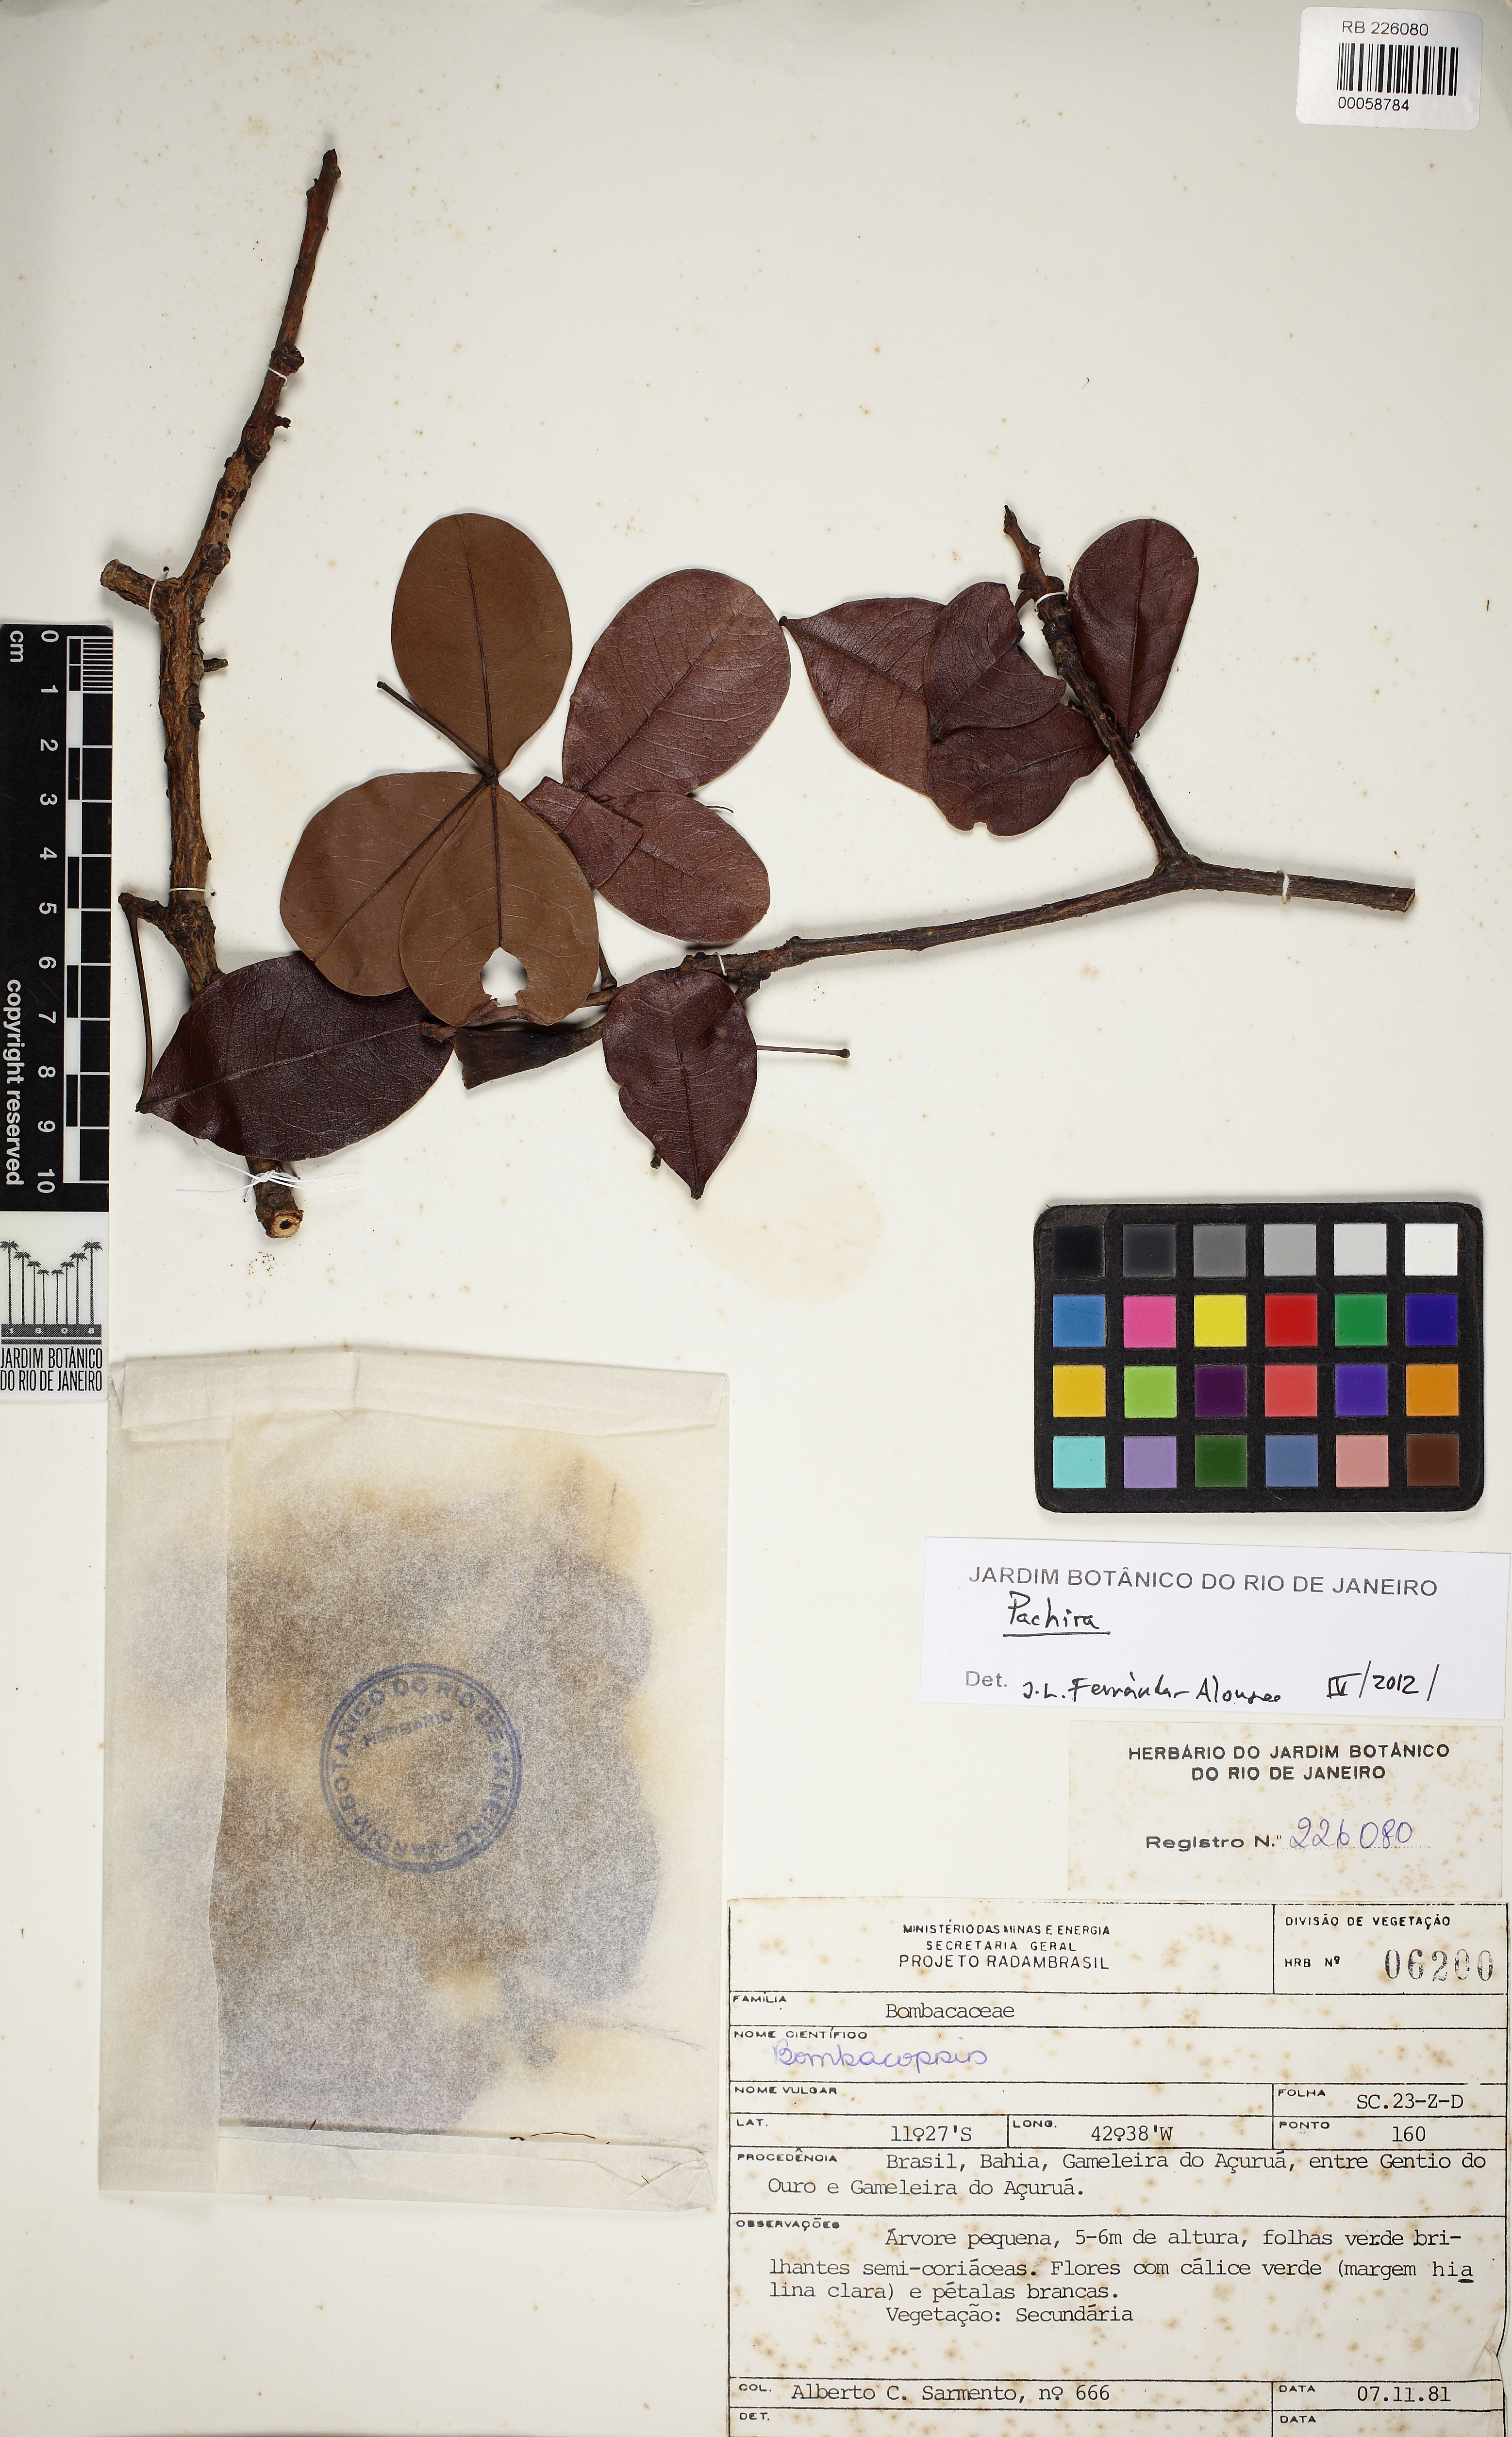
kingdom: Plantae
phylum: Tracheophyta
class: Magnoliopsida
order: Malvales
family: Malvaceae
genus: Pachira
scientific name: Pachira retusa
